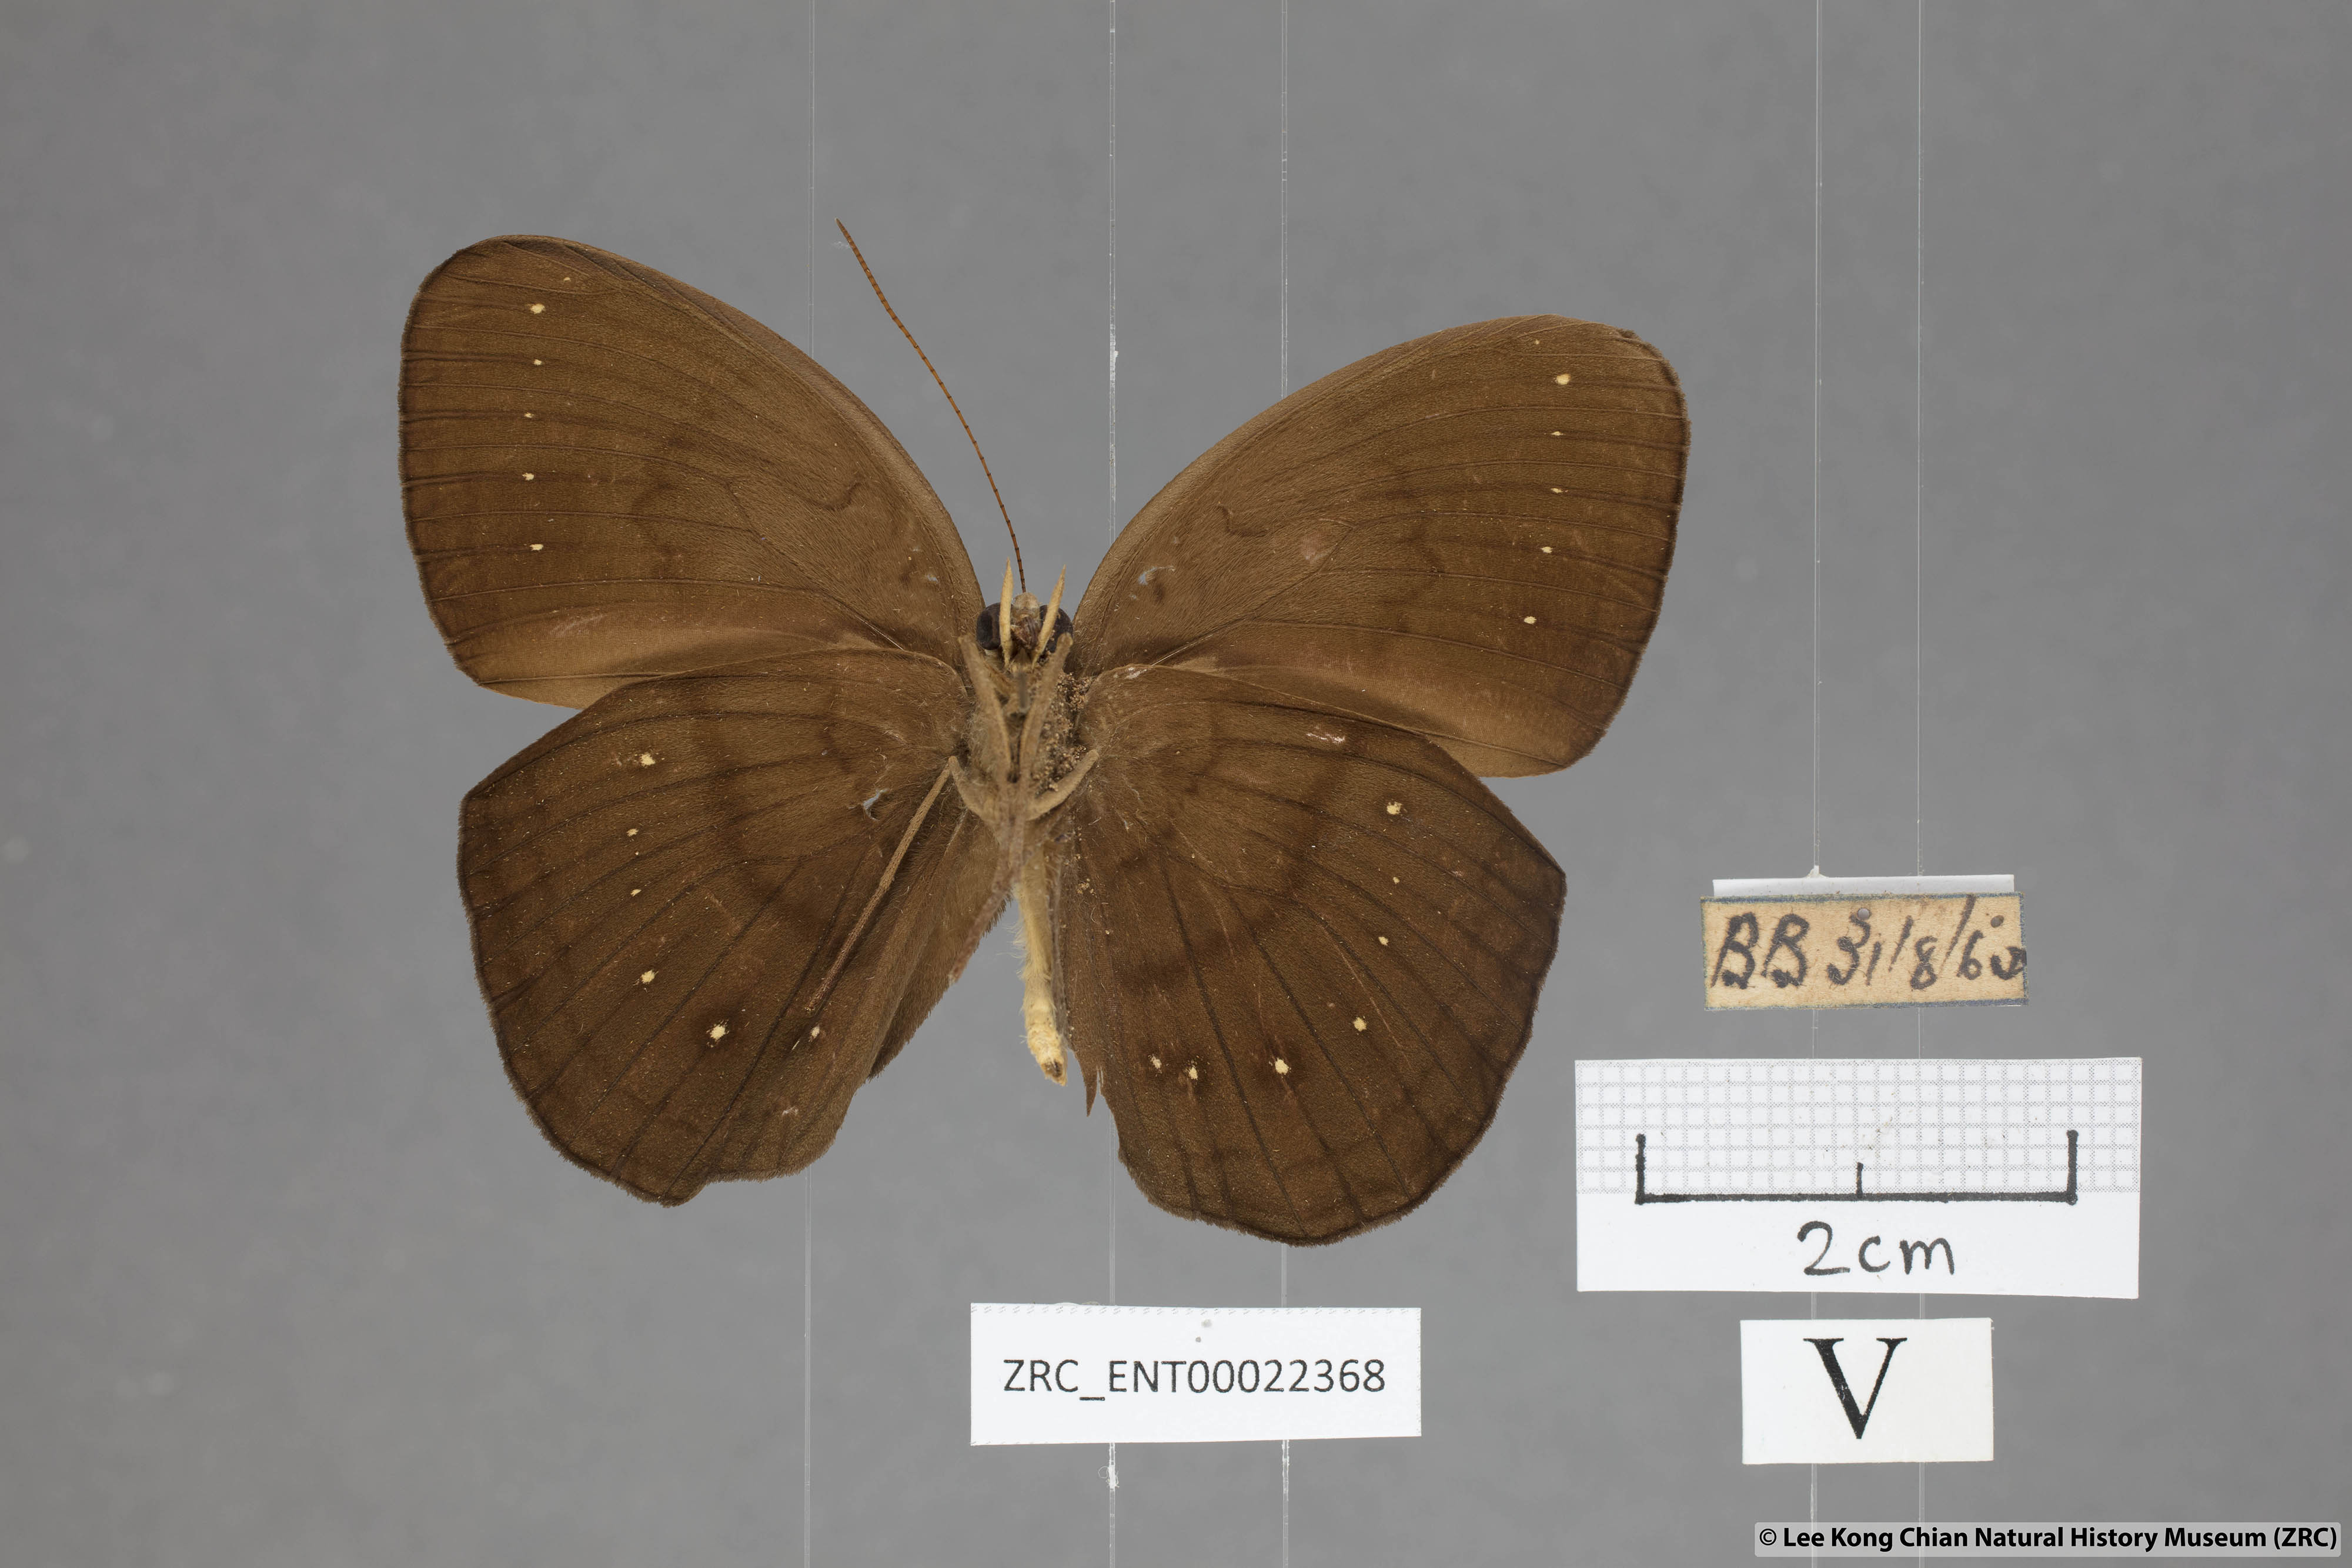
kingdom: Animalia
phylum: Arthropoda
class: Insecta
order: Lepidoptera
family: Nymphalidae
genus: Faunis
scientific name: Faunis canens
